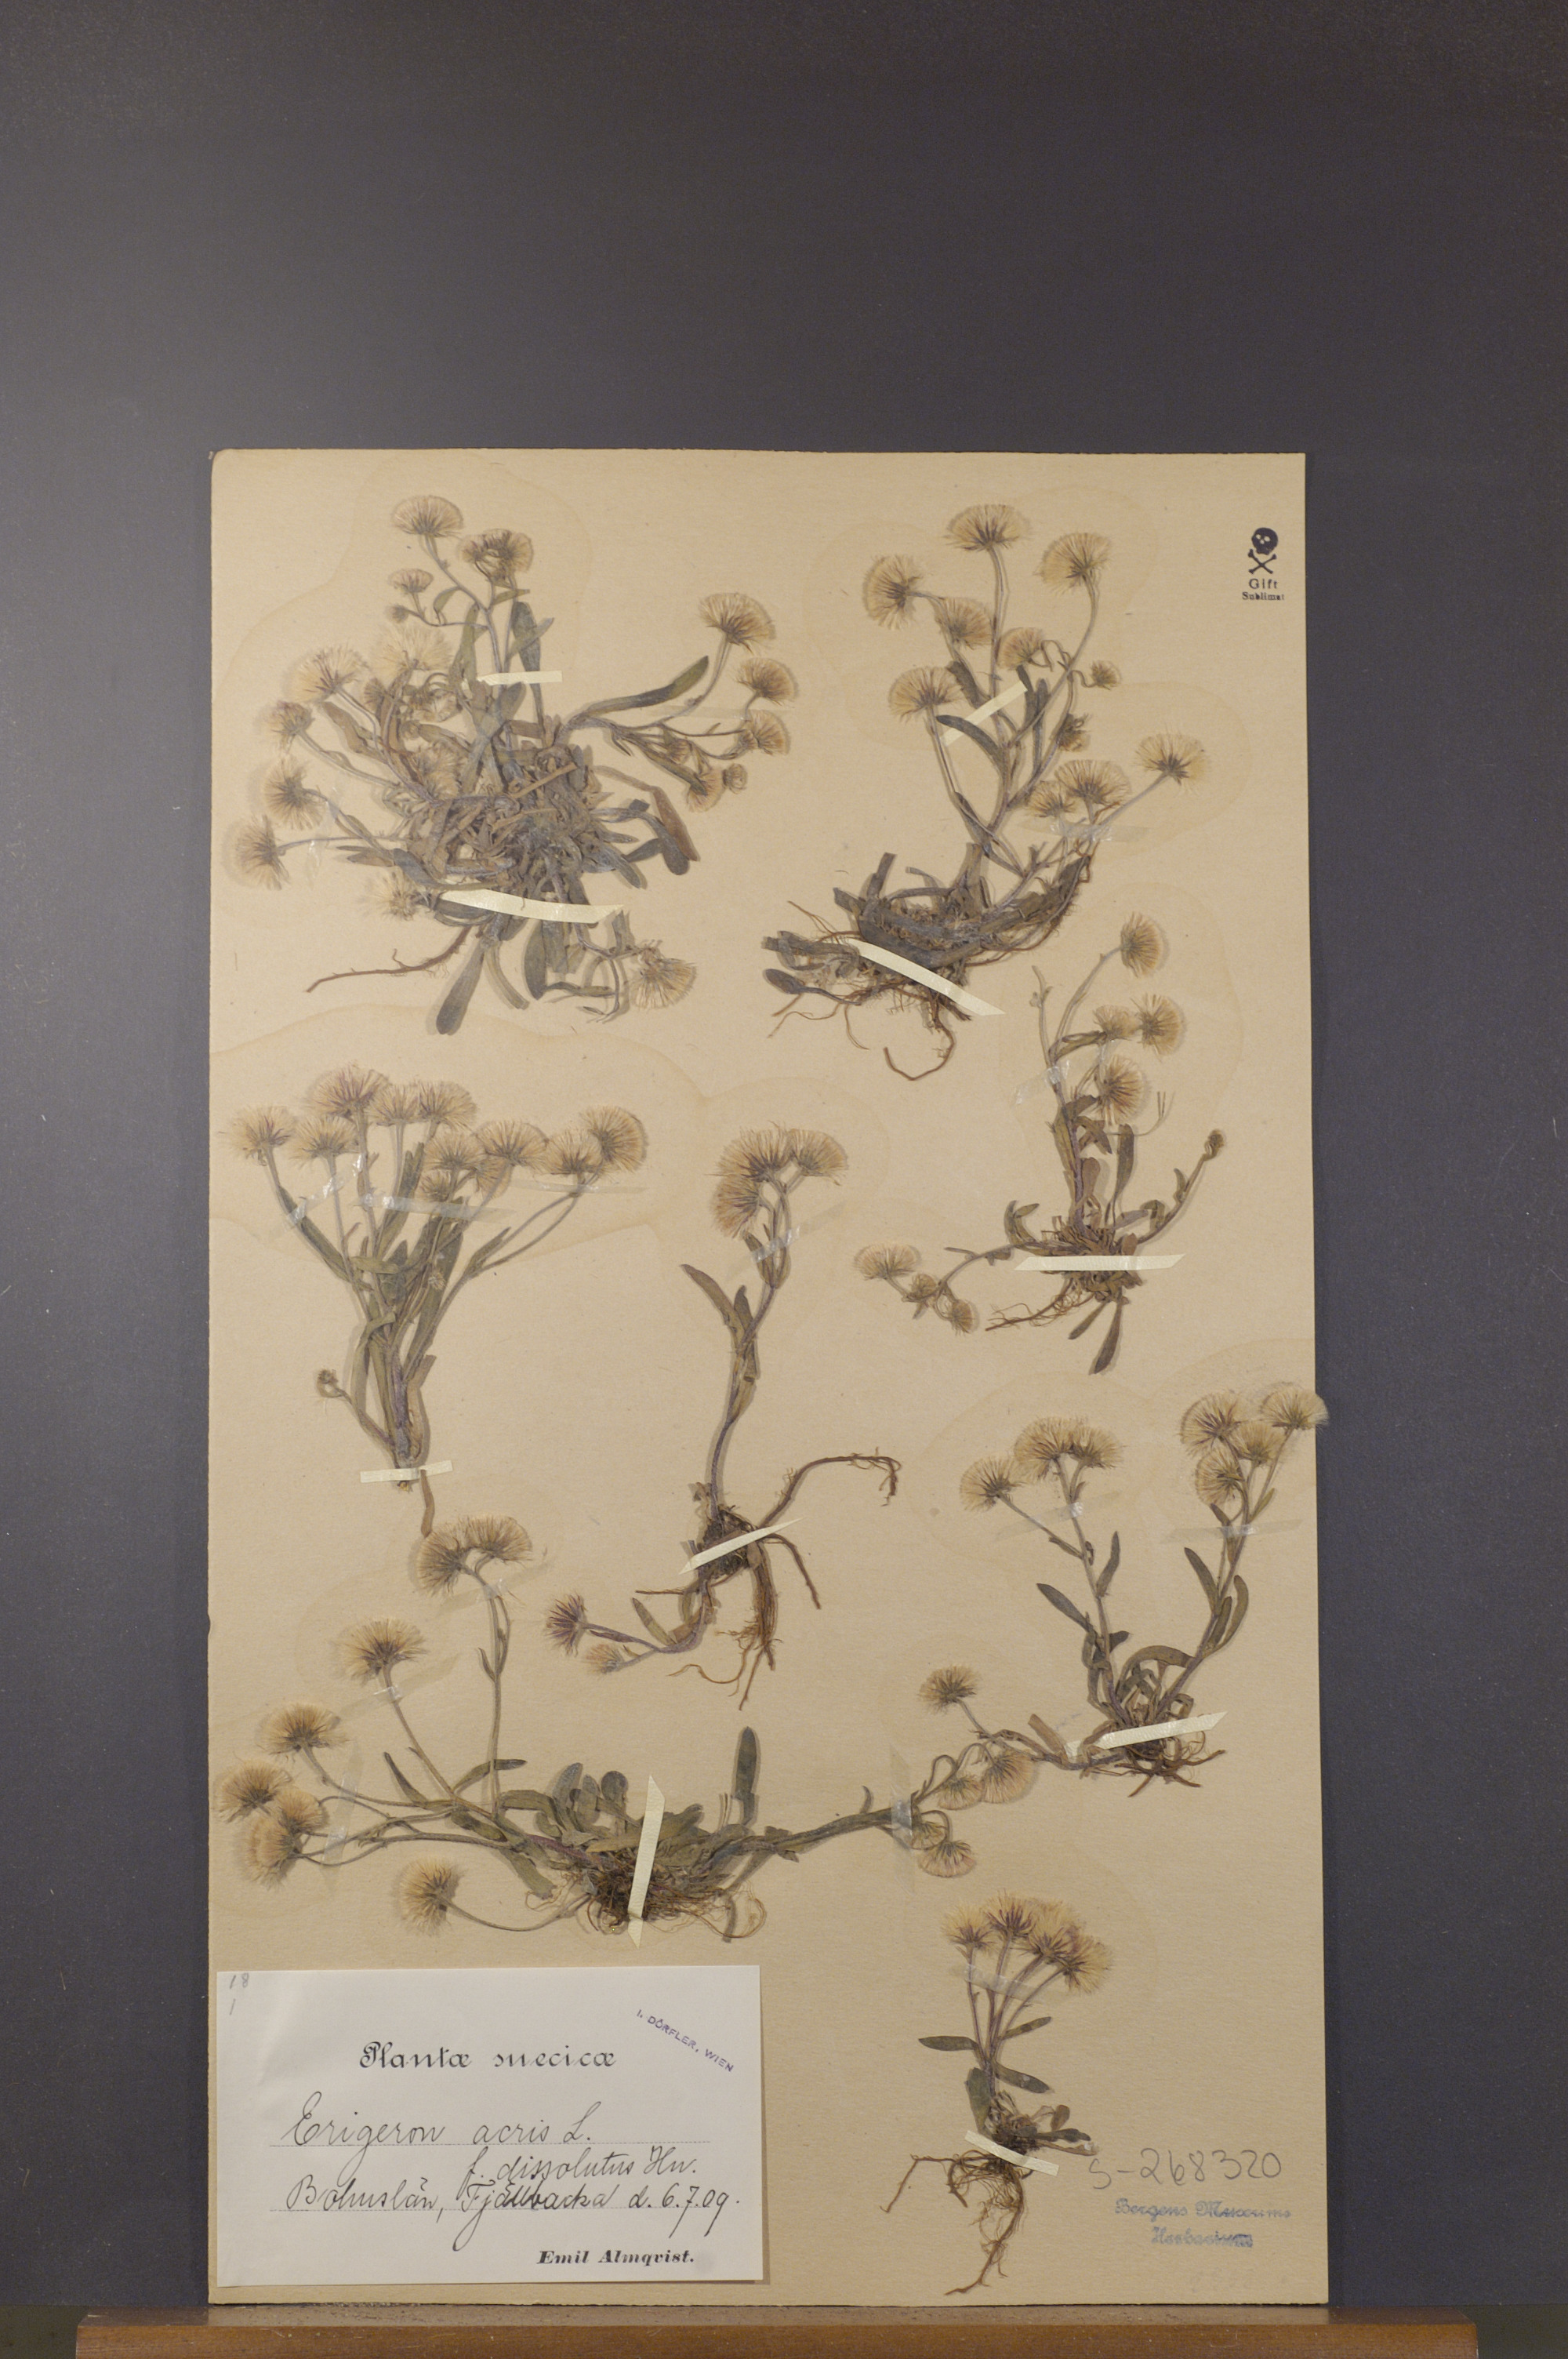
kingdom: Plantae
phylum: Tracheophyta
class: Magnoliopsida
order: Asterales
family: Asteraceae
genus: Erigeron
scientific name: Erigeron acris
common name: Blue fleabane
